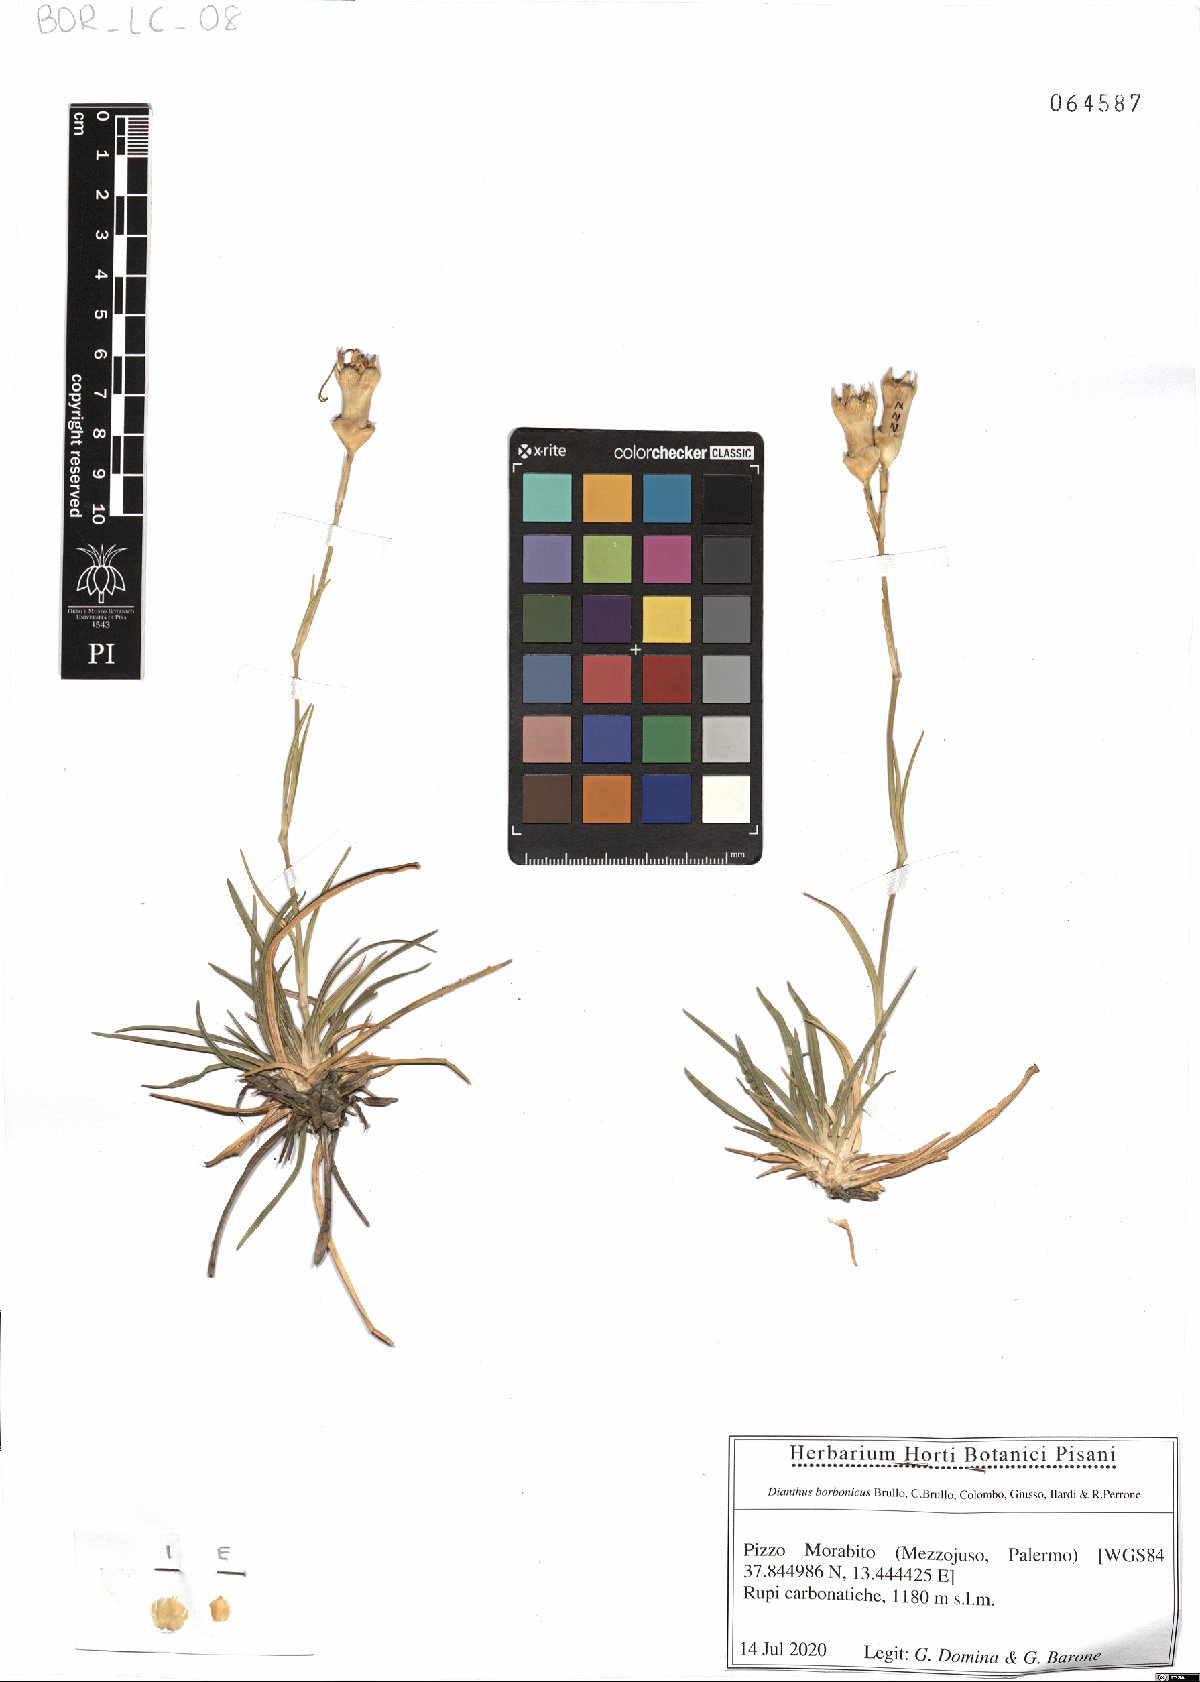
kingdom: Plantae
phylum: Tracheophyta
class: Magnoliopsida
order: Caryophyllales
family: Caryophyllaceae
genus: Dianthus
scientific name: Dianthus borbonicus
